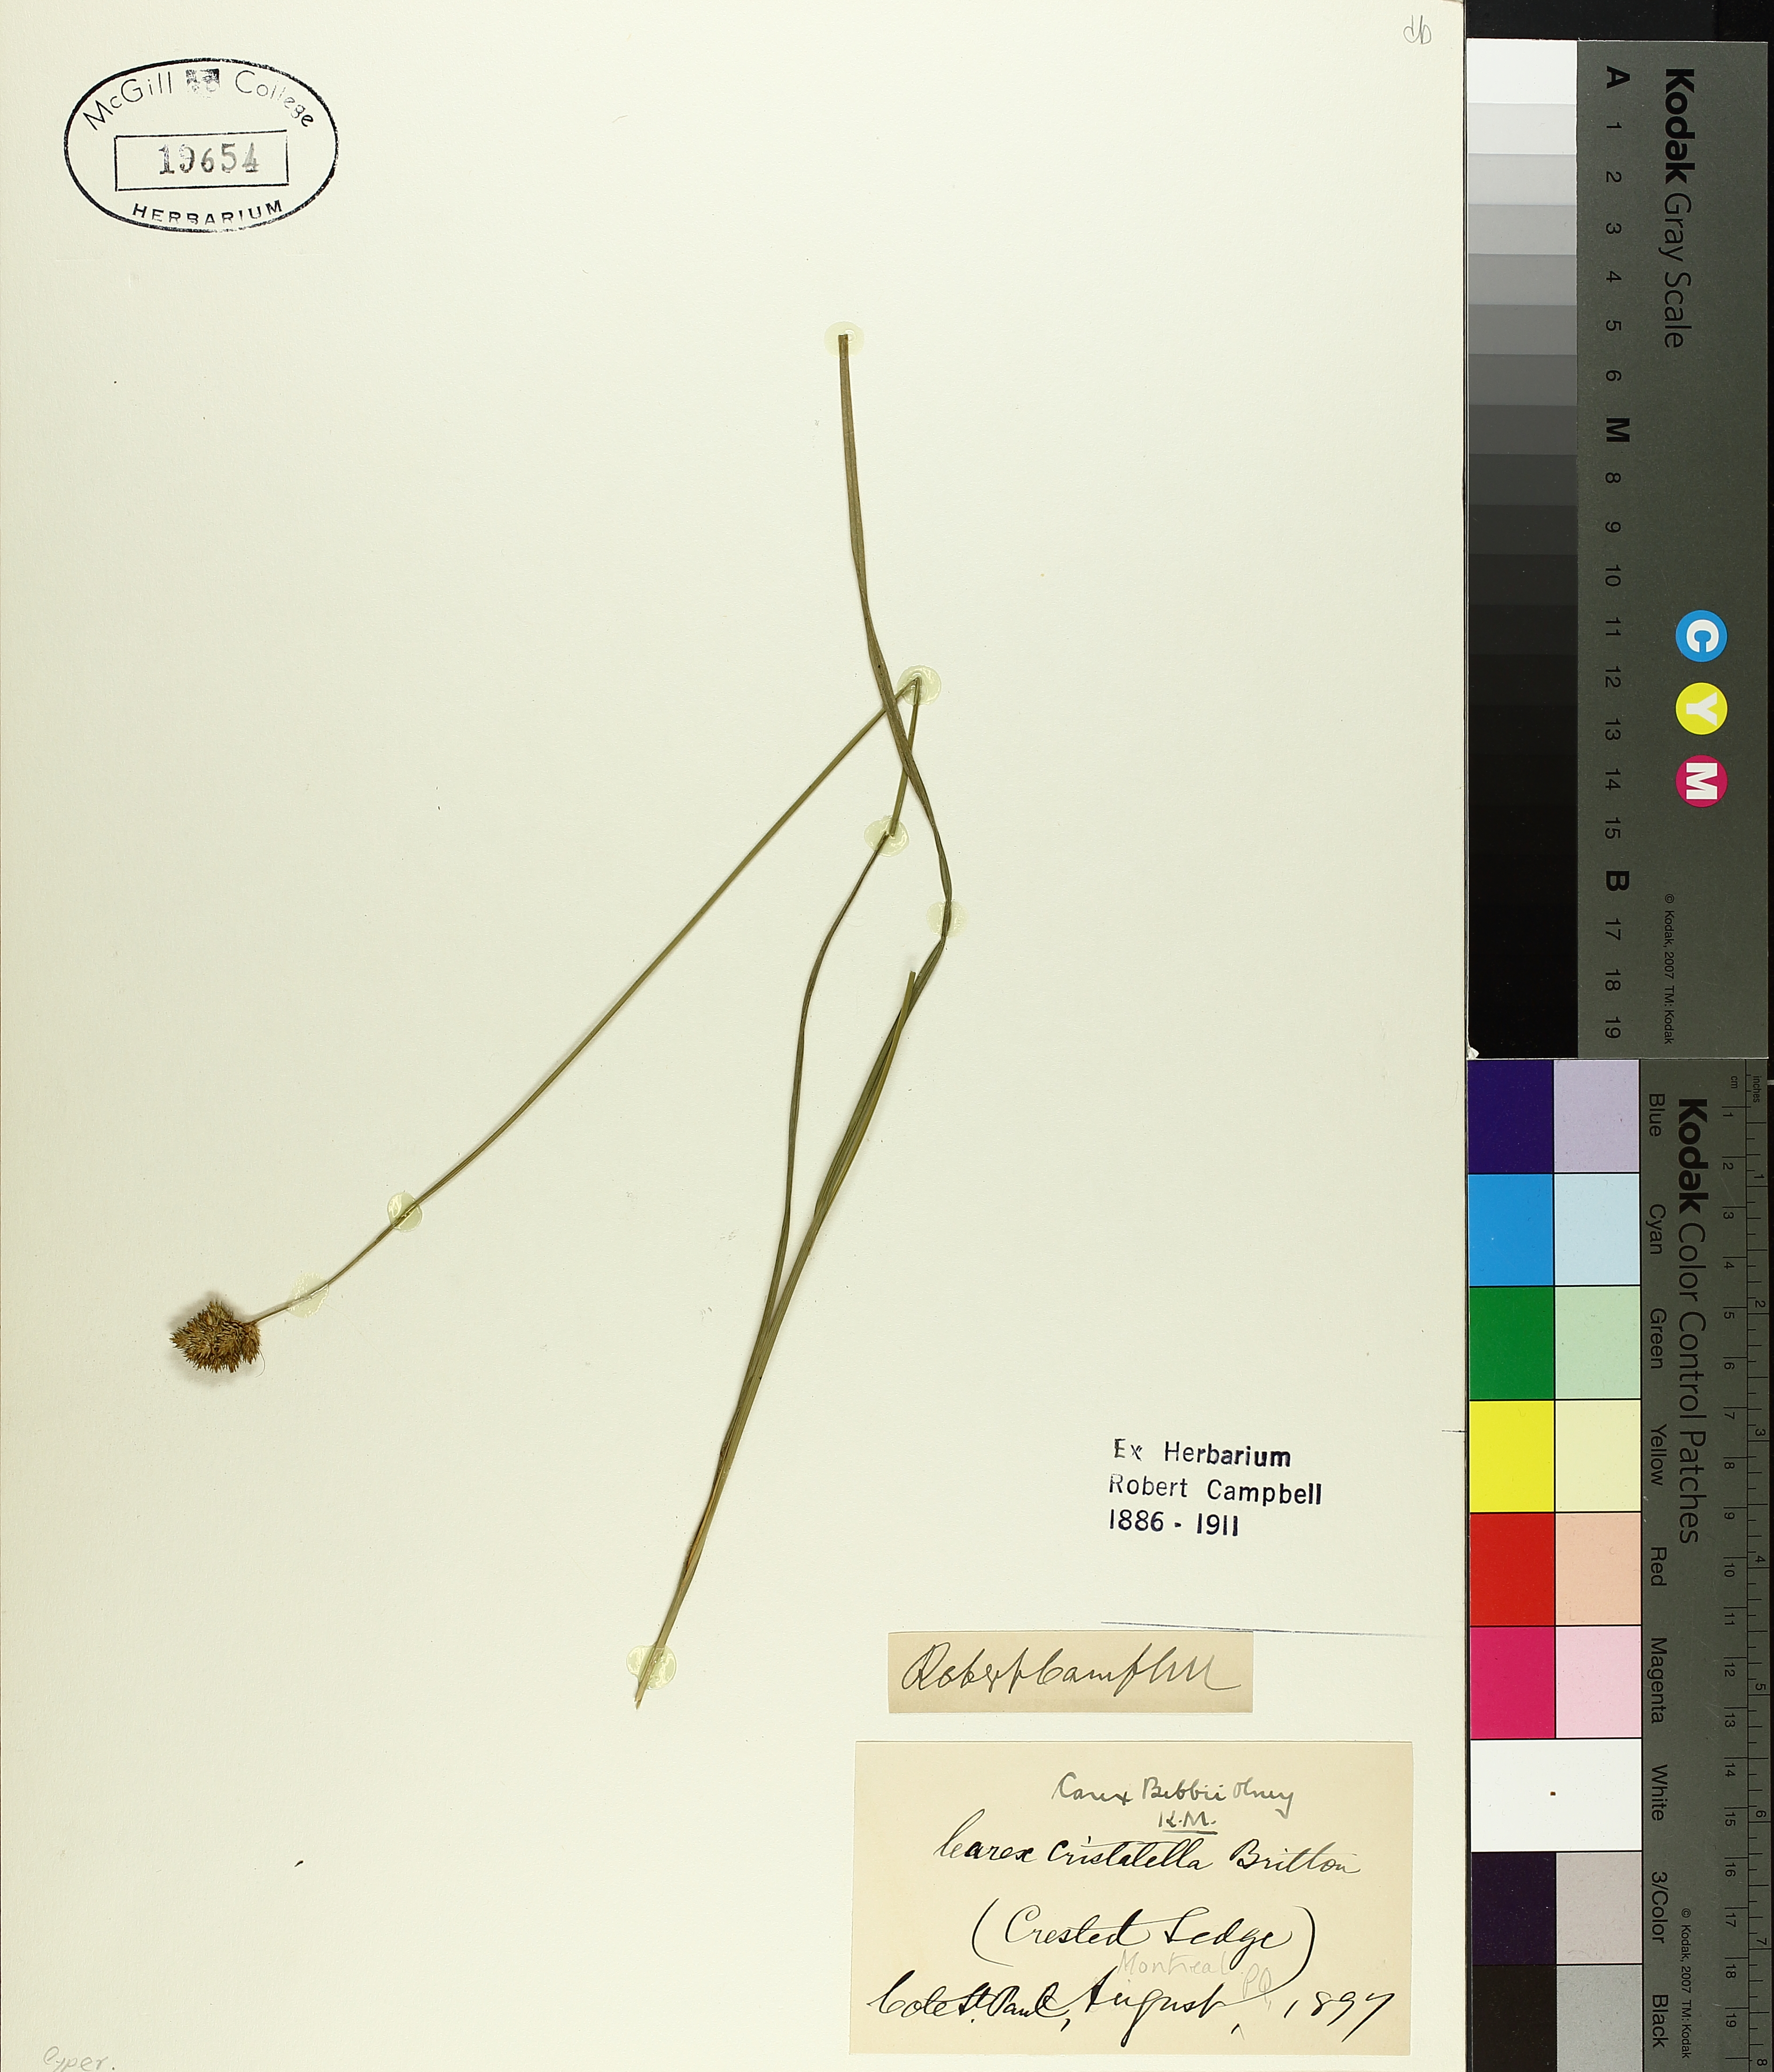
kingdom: Plantae
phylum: Tracheophyta
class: Liliopsida
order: Poales
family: Cyperaceae
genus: Carex
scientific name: Carex bebbii
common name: Bebb's sedge
